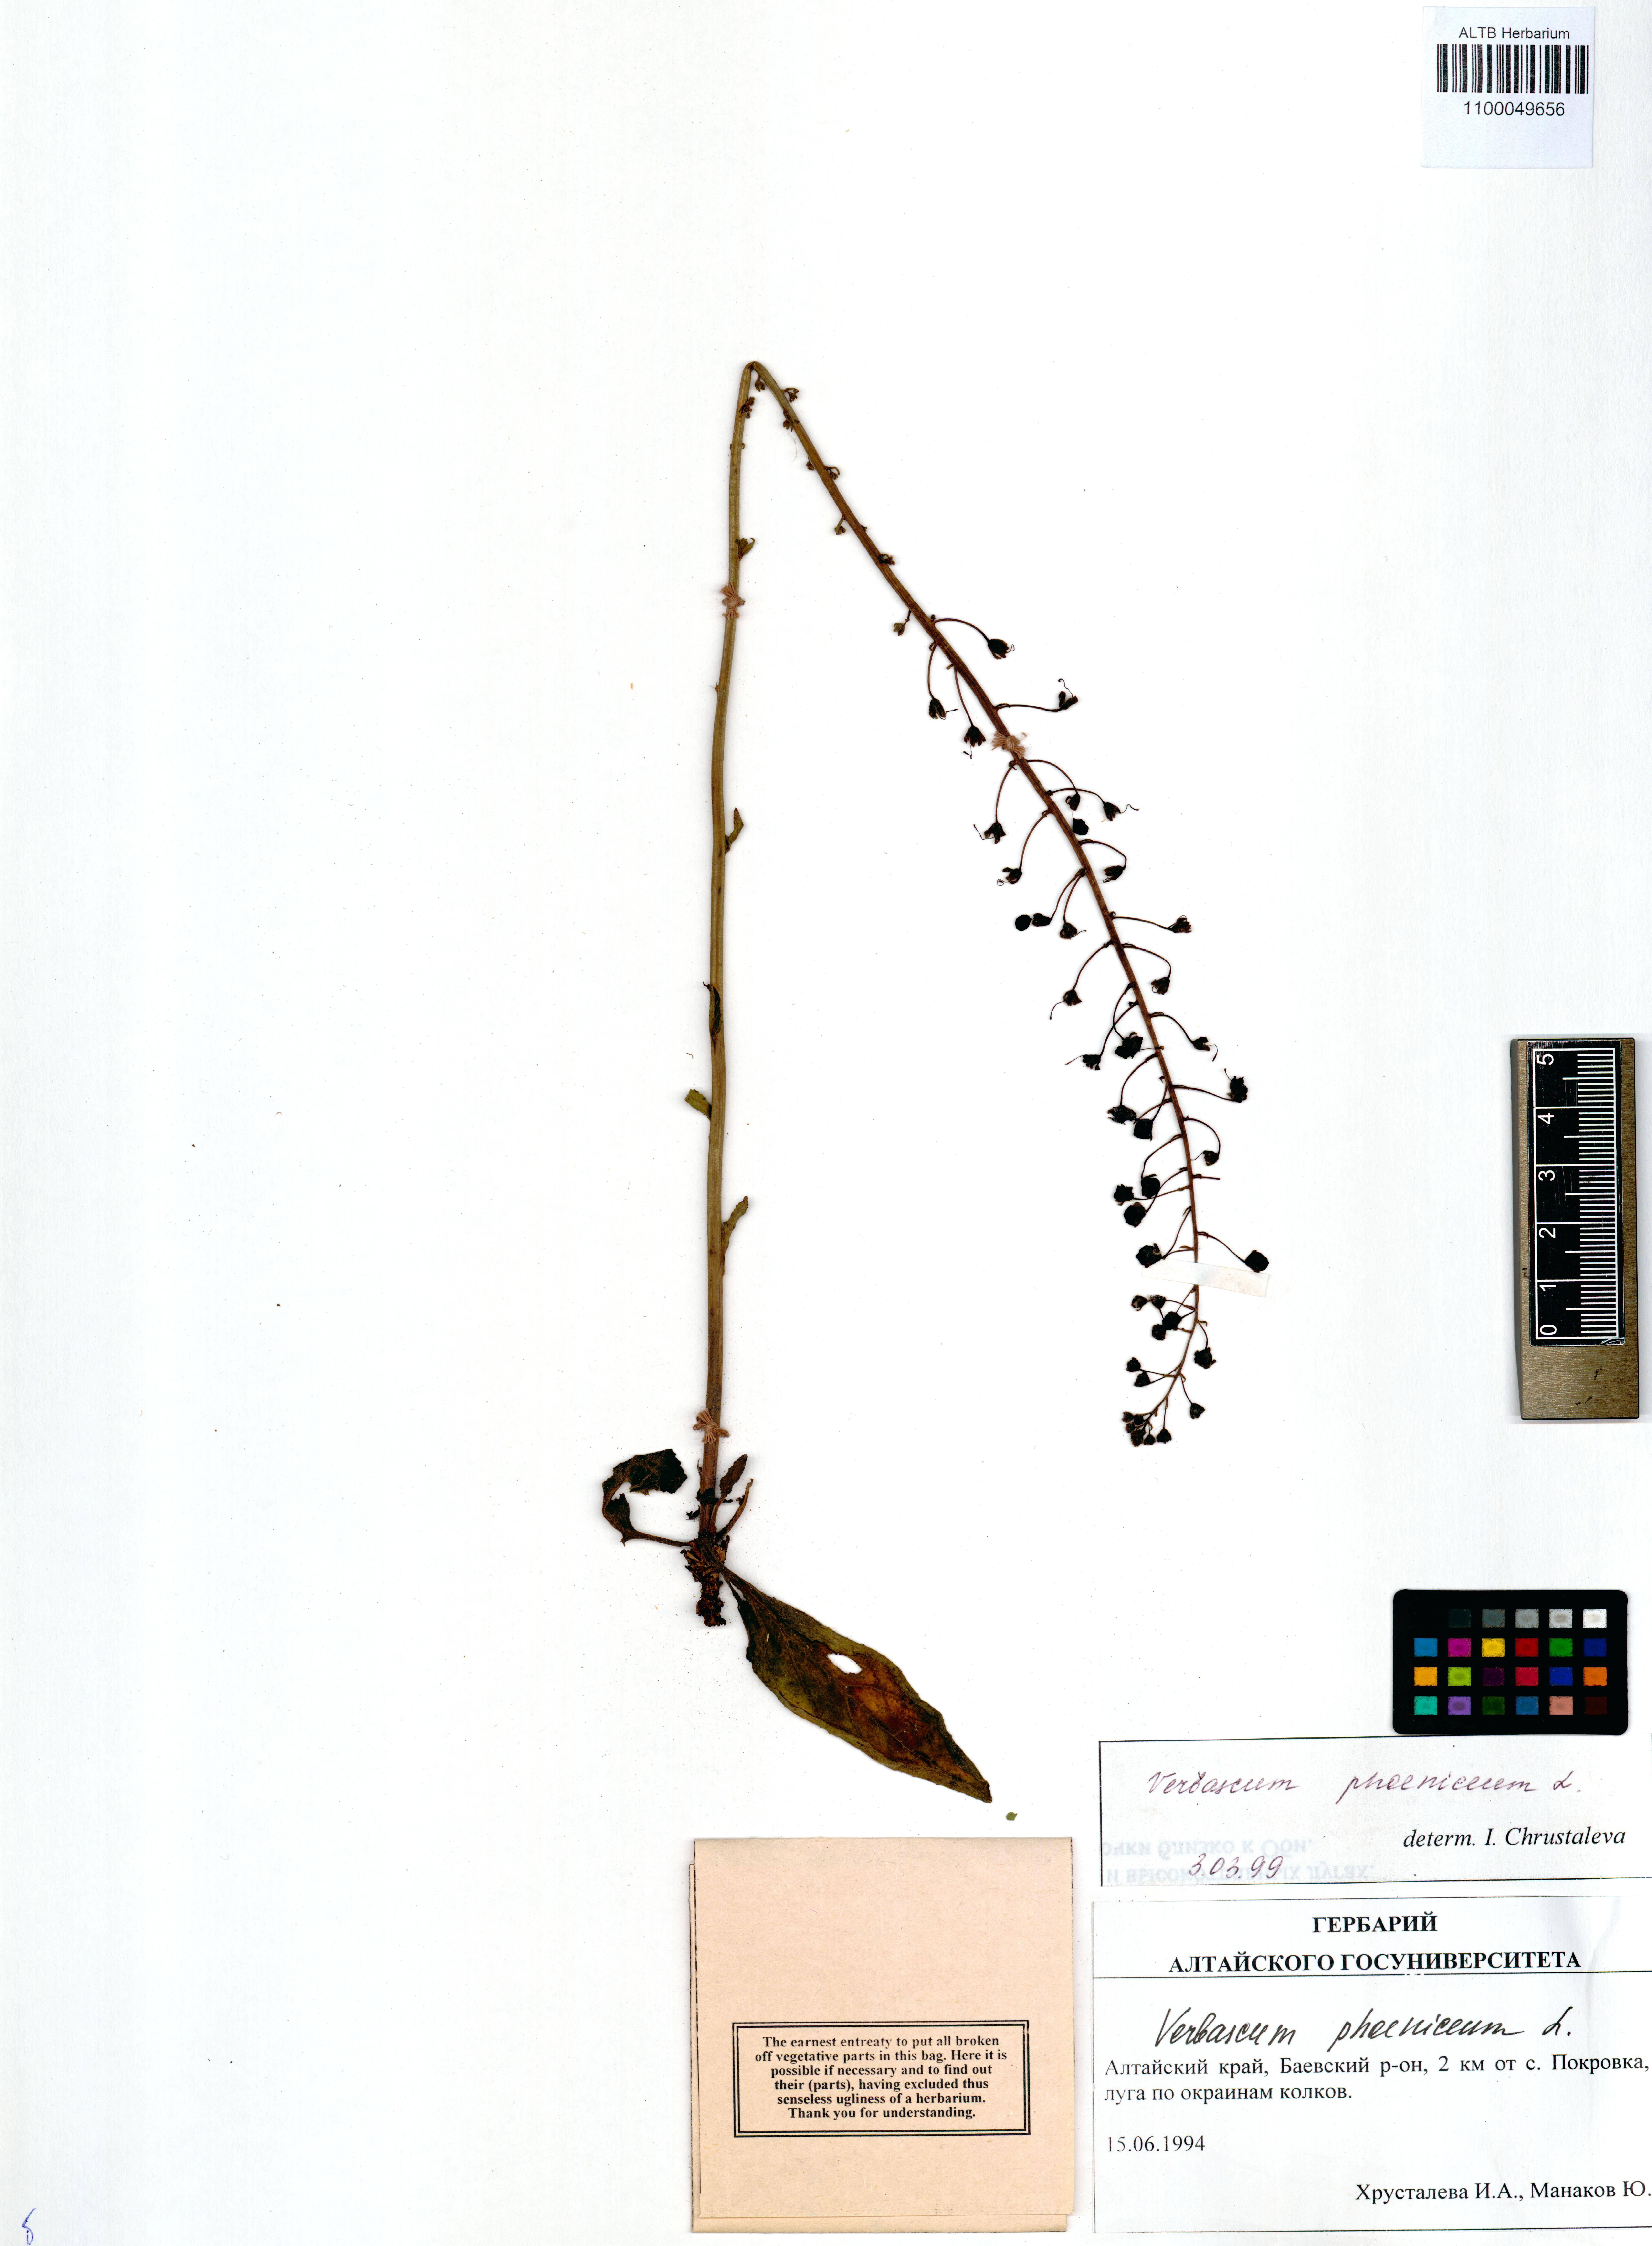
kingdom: Plantae
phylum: Tracheophyta
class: Magnoliopsida
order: Lamiales
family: Scrophulariaceae
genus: Verbascum
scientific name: Verbascum phoeniceum
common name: Purple mullein
